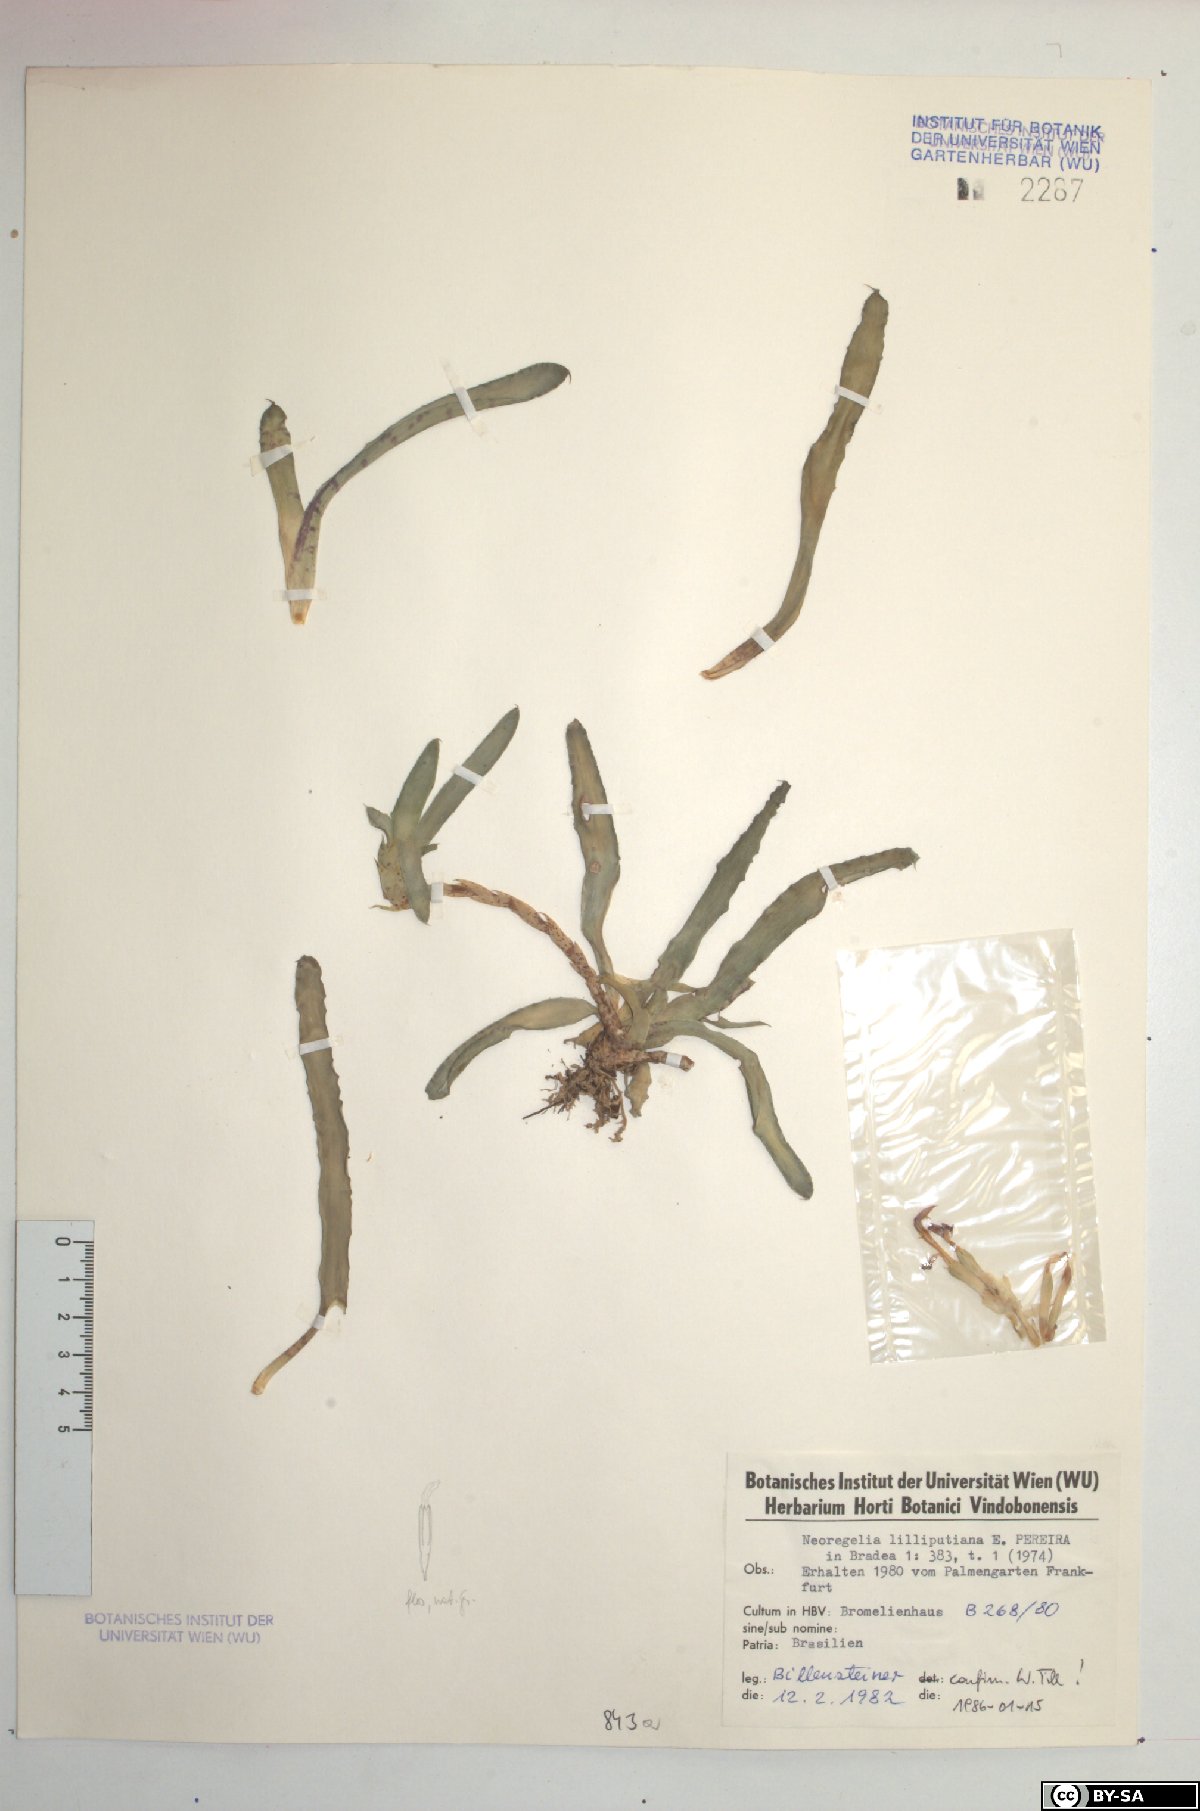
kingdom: Plantae
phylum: Tracheophyta
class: Liliopsida
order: Poales
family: Bromeliaceae
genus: Neoregelia
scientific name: Neoregelia lilliputiana
